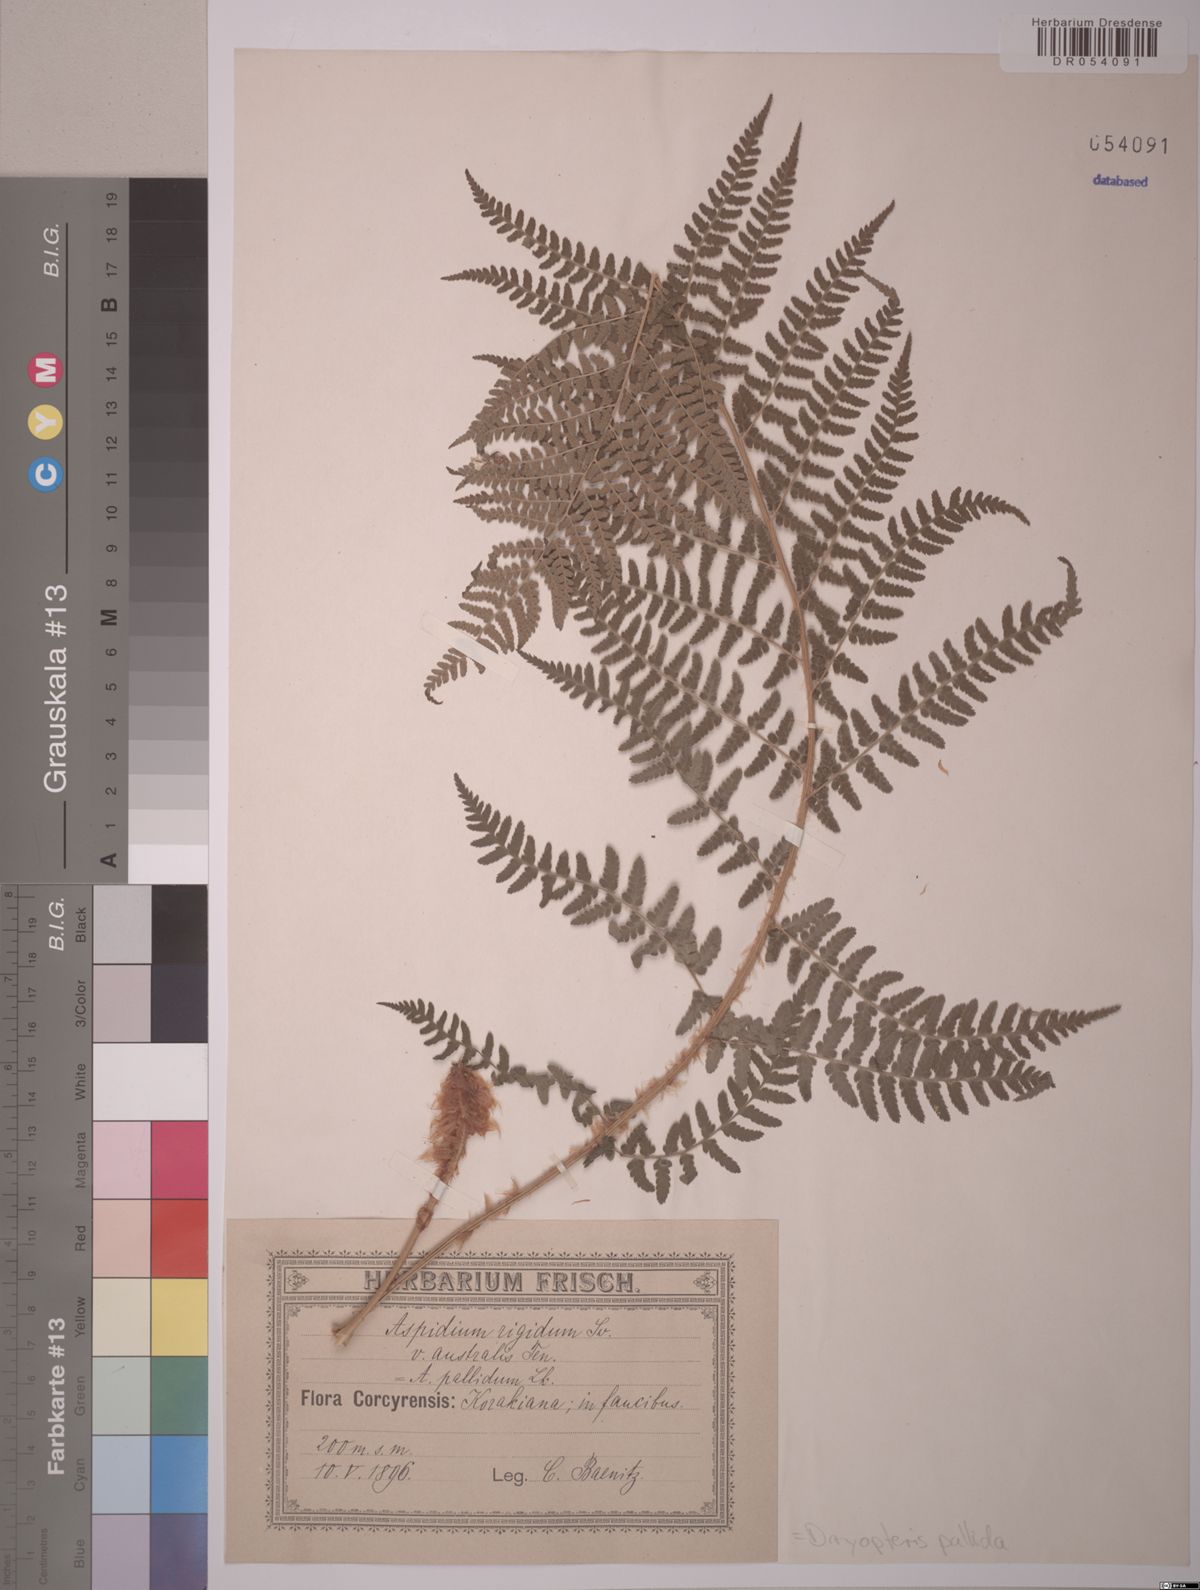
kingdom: Plantae
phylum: Tracheophyta
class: Polypodiopsida
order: Polypodiales
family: Dryopteridaceae
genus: Dryopteris
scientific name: Dryopteris pallida
